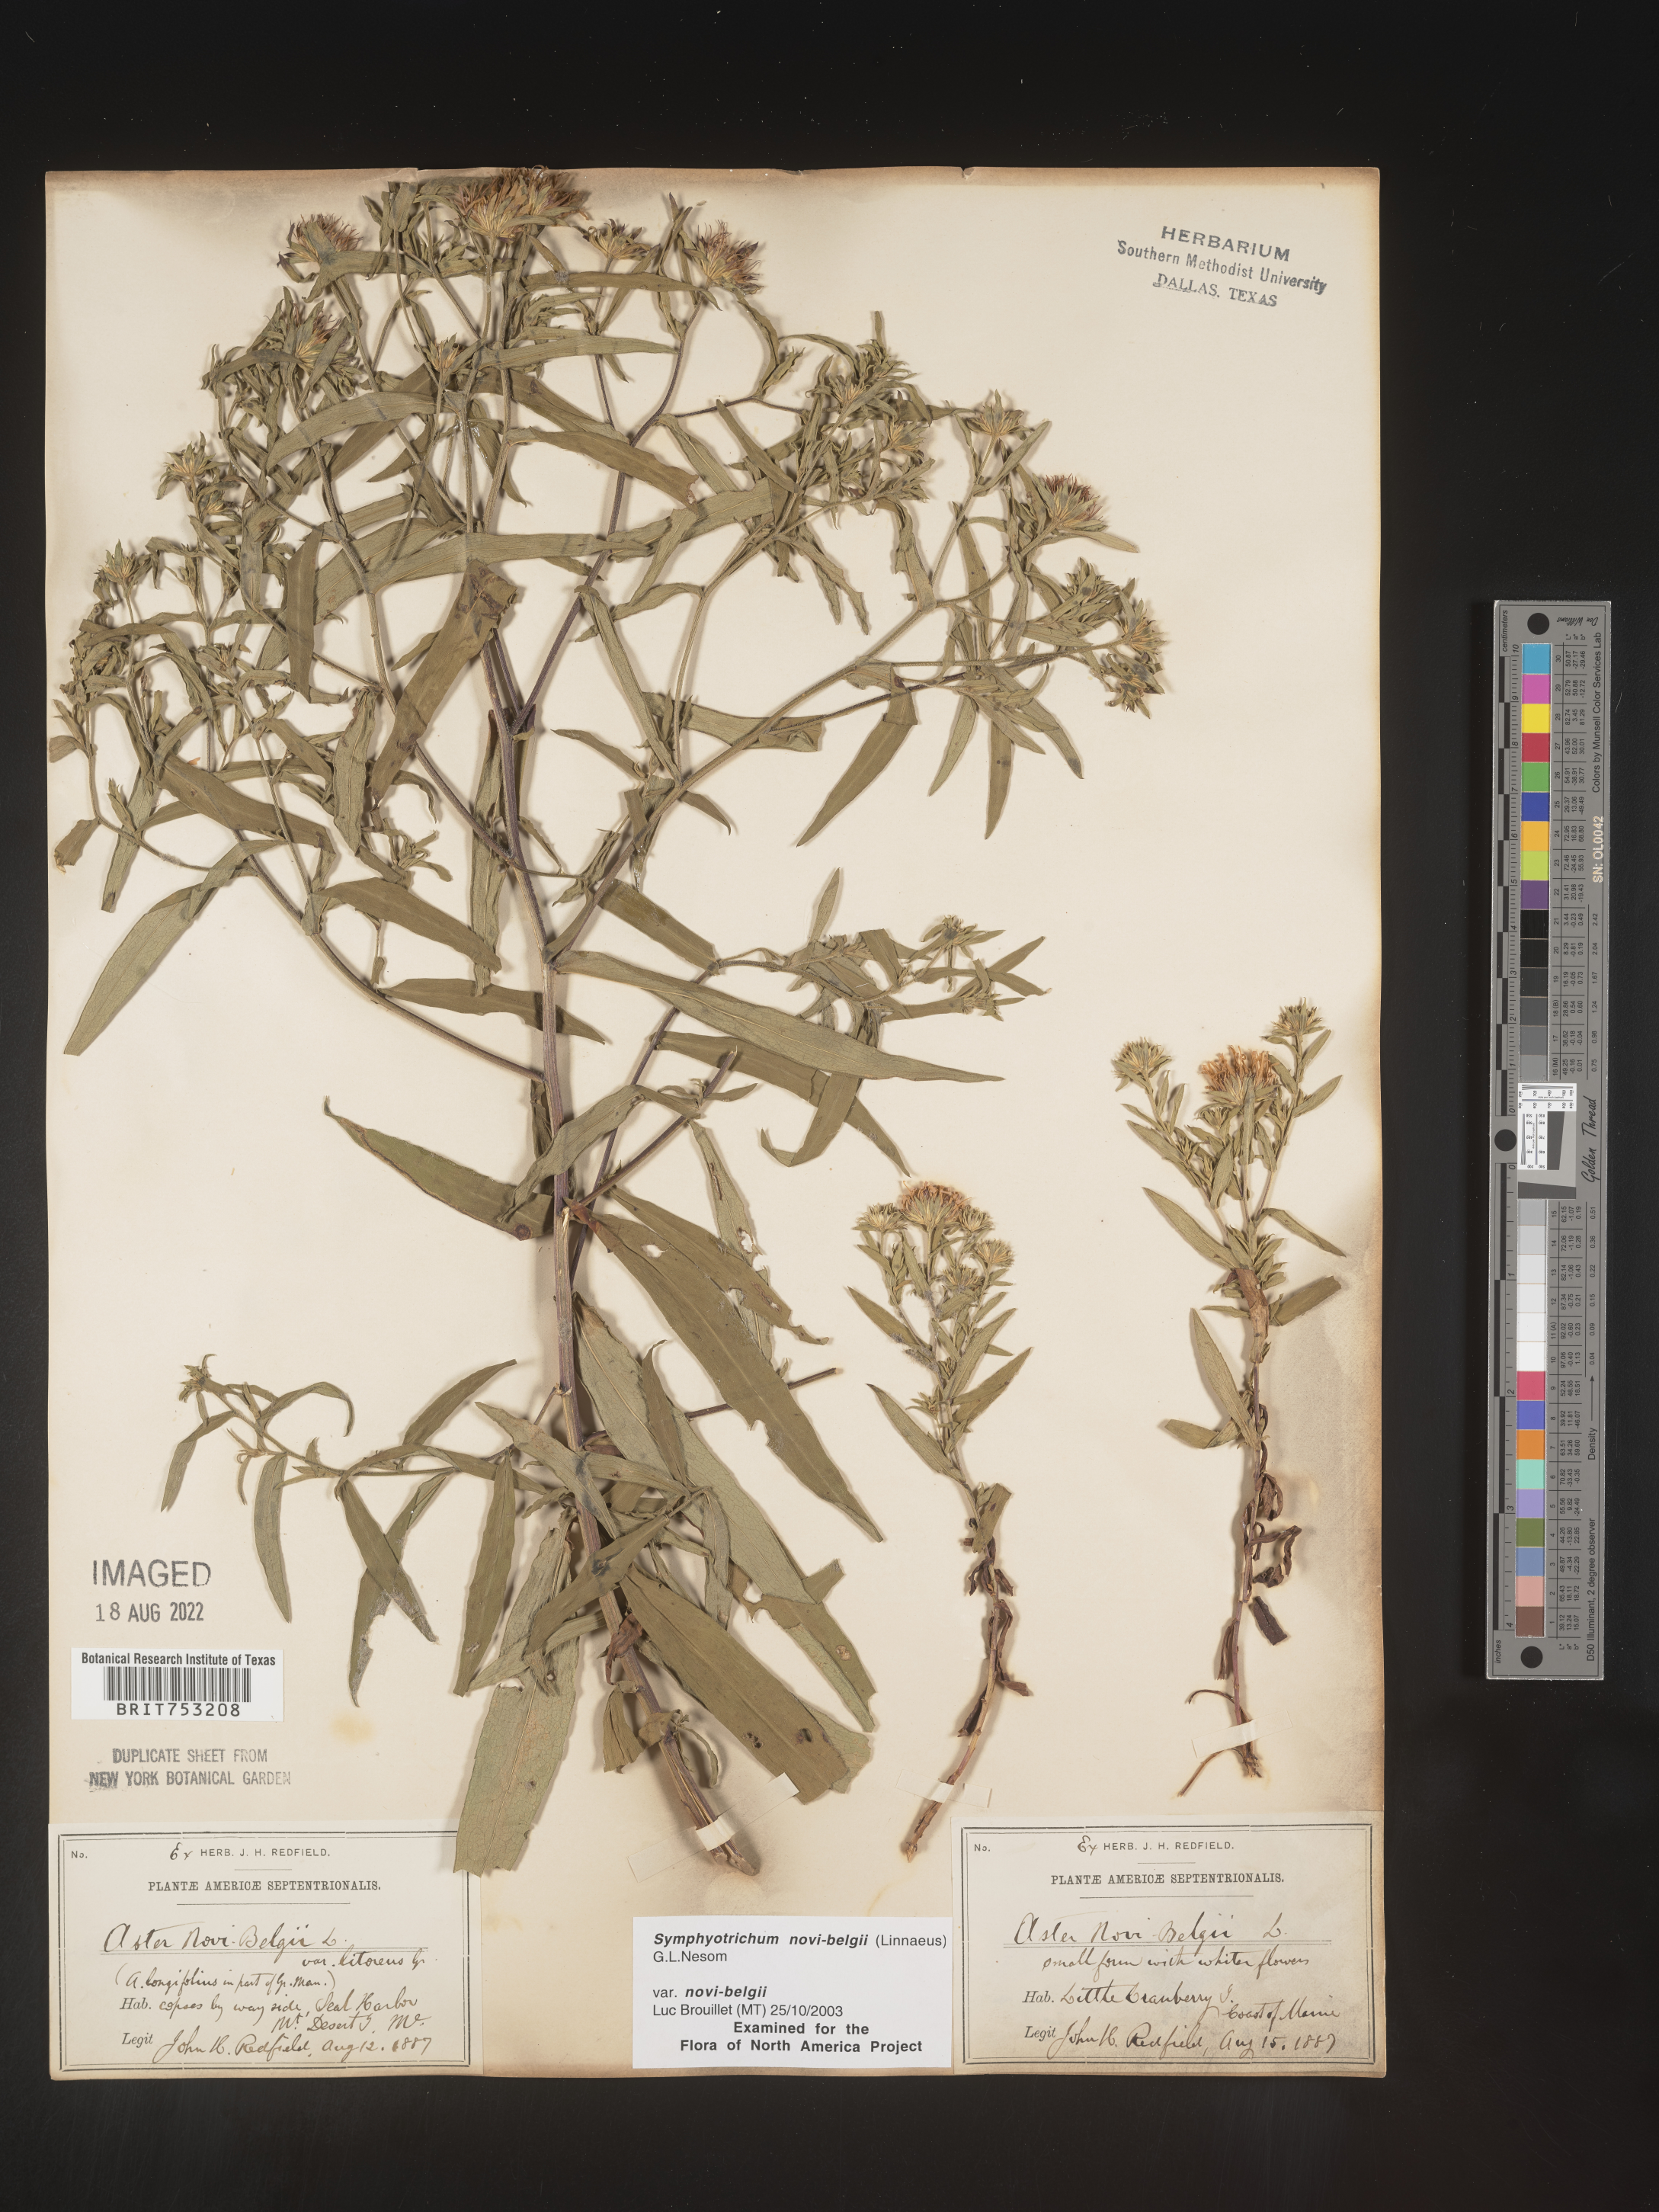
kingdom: Plantae
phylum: Tracheophyta
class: Magnoliopsida
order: Asterales
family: Asteraceae
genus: Symphyotrichum
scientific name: Symphyotrichum novi-belgii
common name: Michaelmas daisy
